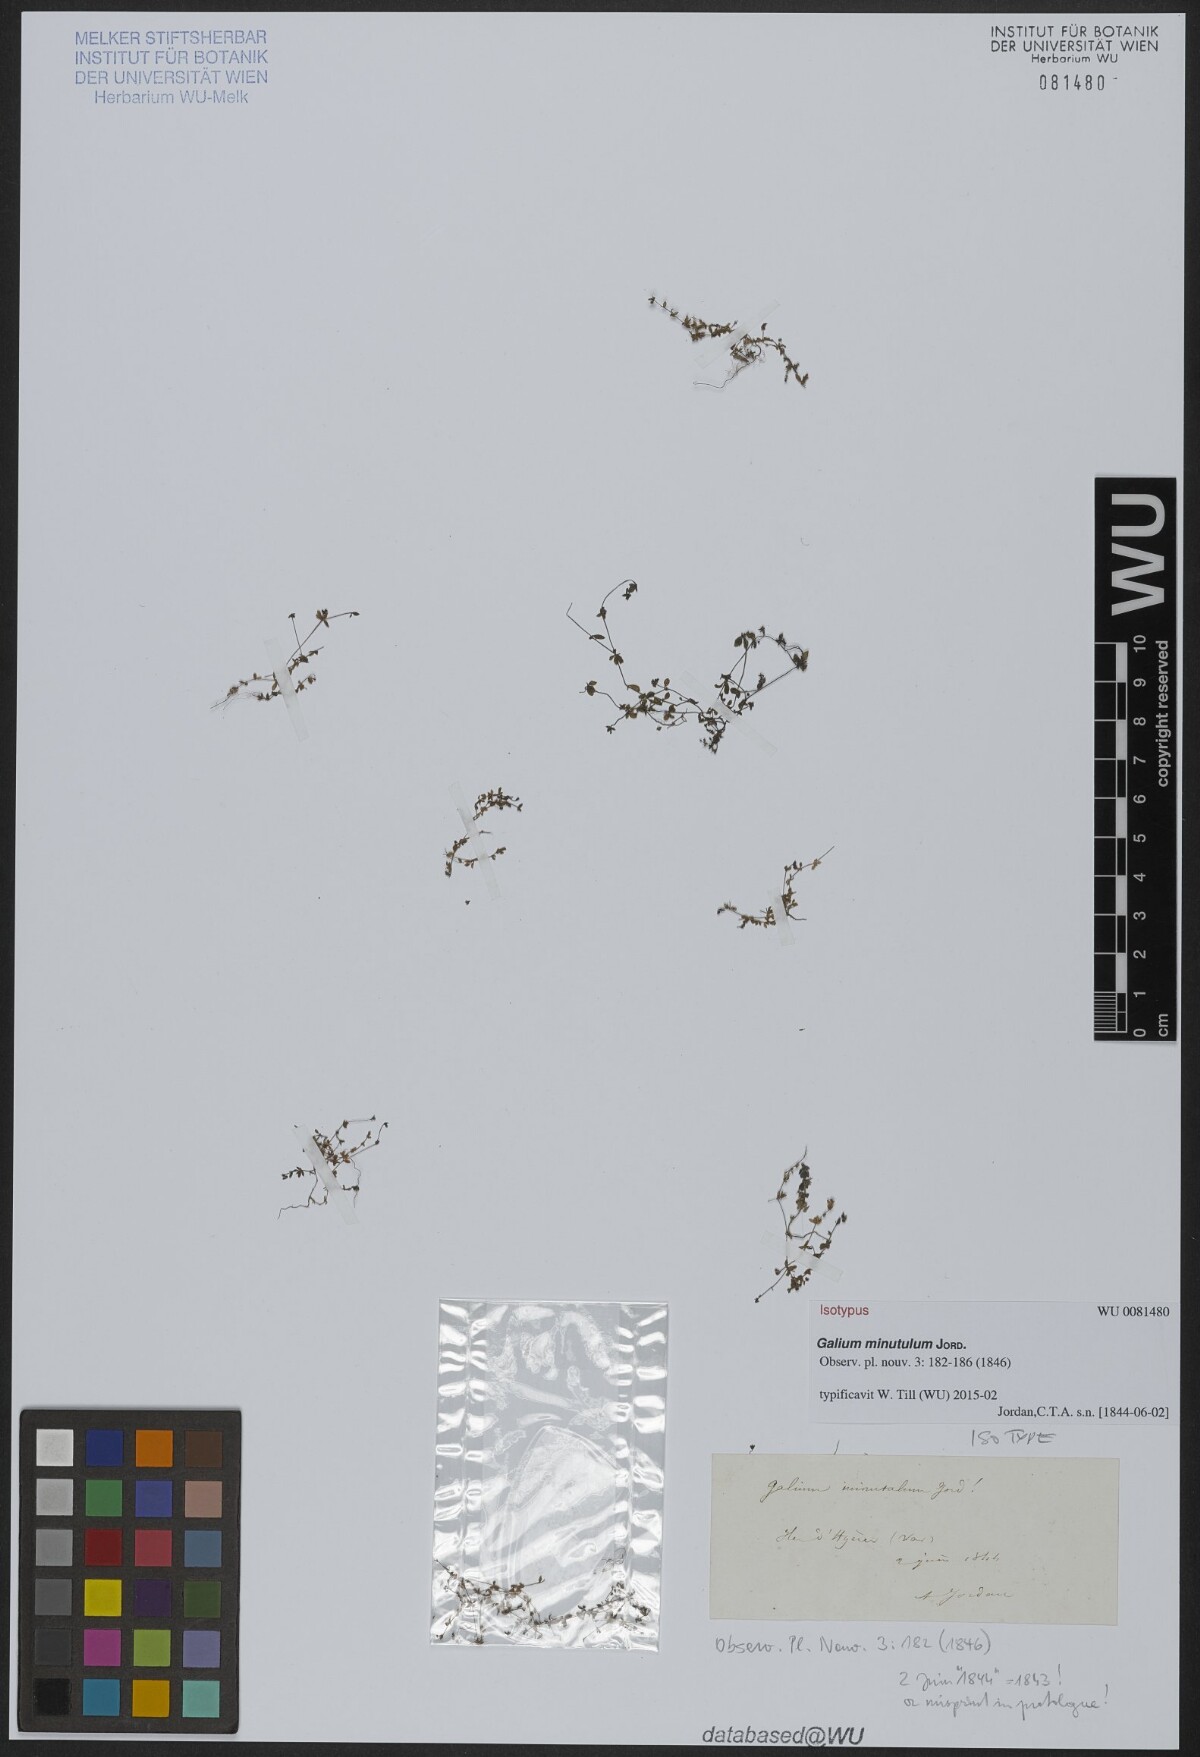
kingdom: Plantae
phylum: Tracheophyta
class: Magnoliopsida
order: Gentianales
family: Rubiaceae
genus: Galium
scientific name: Galium minutulum
